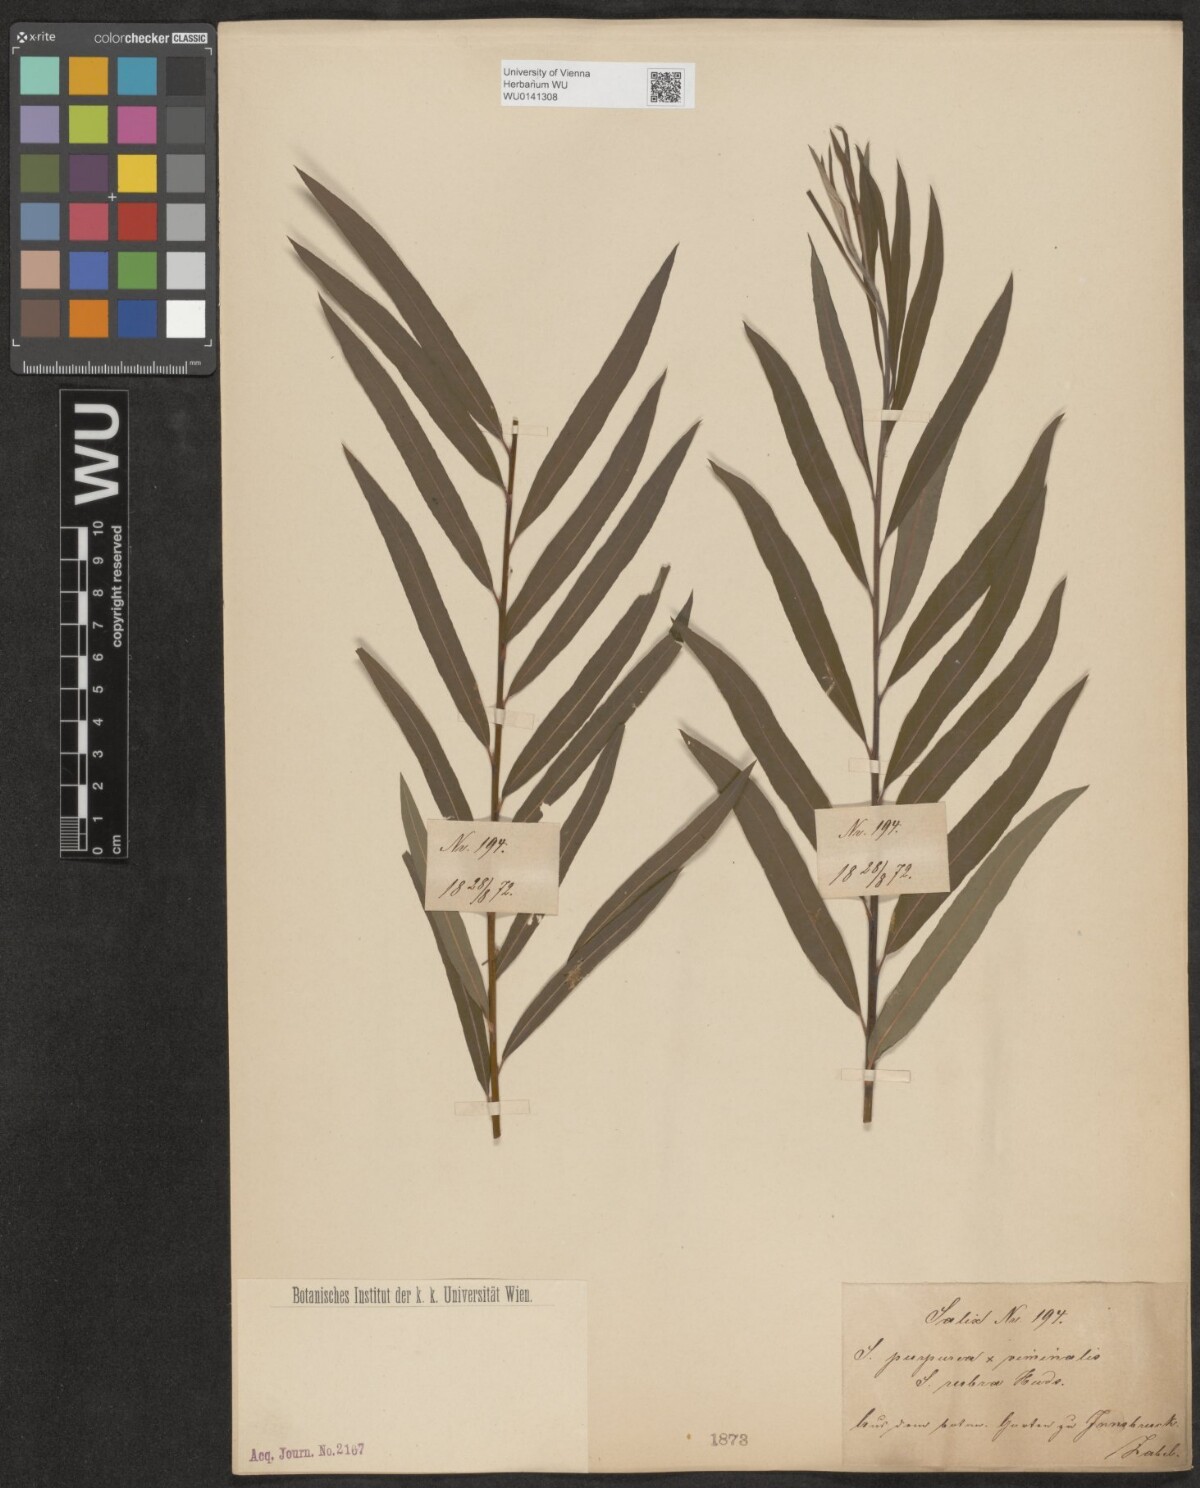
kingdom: Plantae
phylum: Tracheophyta
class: Magnoliopsida
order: Malpighiales
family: Salicaceae
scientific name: Salicaceae
